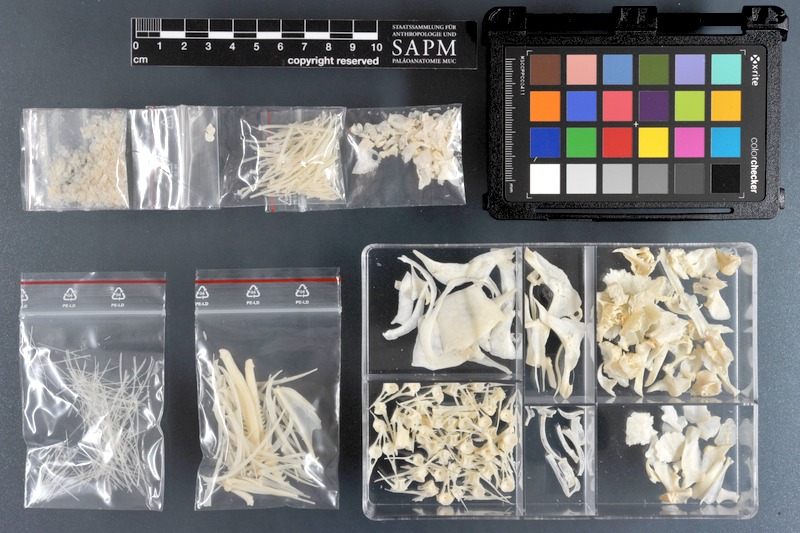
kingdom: Animalia
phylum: Chordata
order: Cypriniformes
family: Cyprinidae
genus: Capoeta
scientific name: Capoeta trutta
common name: Longspine scraper
